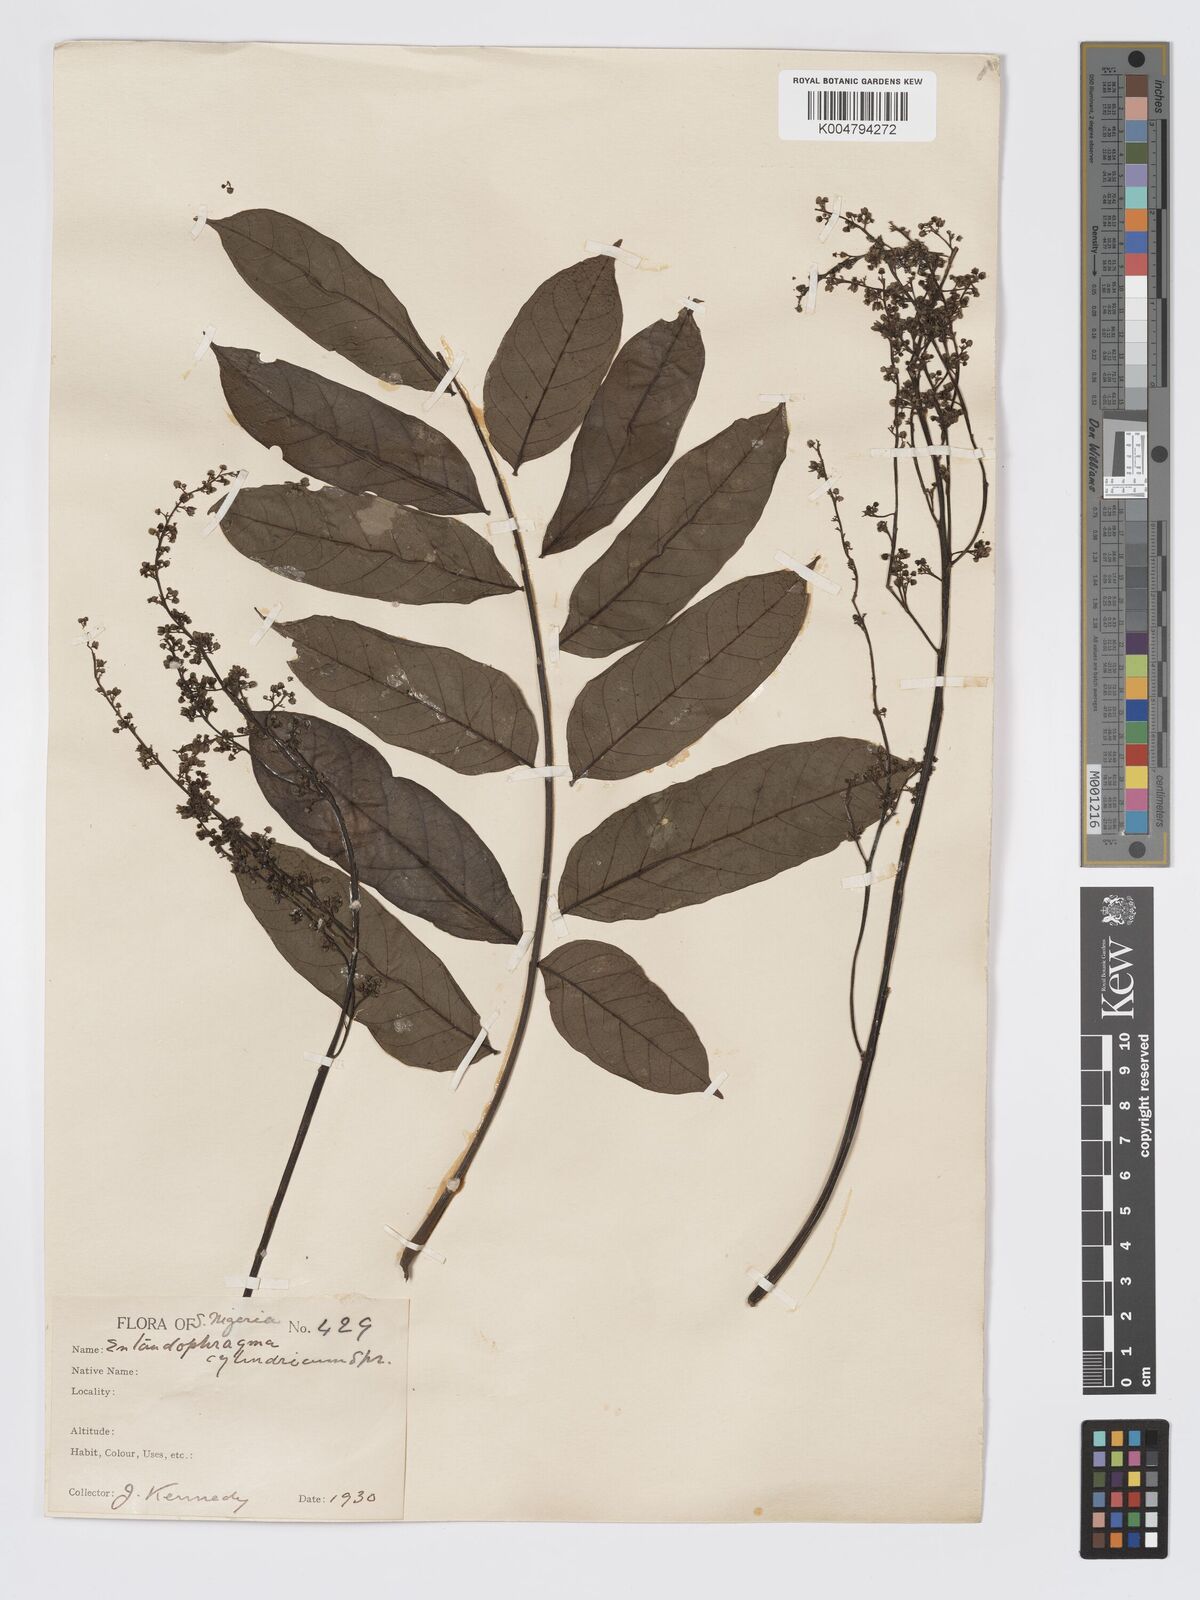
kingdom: Plantae
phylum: Tracheophyta
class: Magnoliopsida
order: Sapindales
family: Meliaceae
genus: Entandrophragma
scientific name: Entandrophragma cylindricum
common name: Sapele
